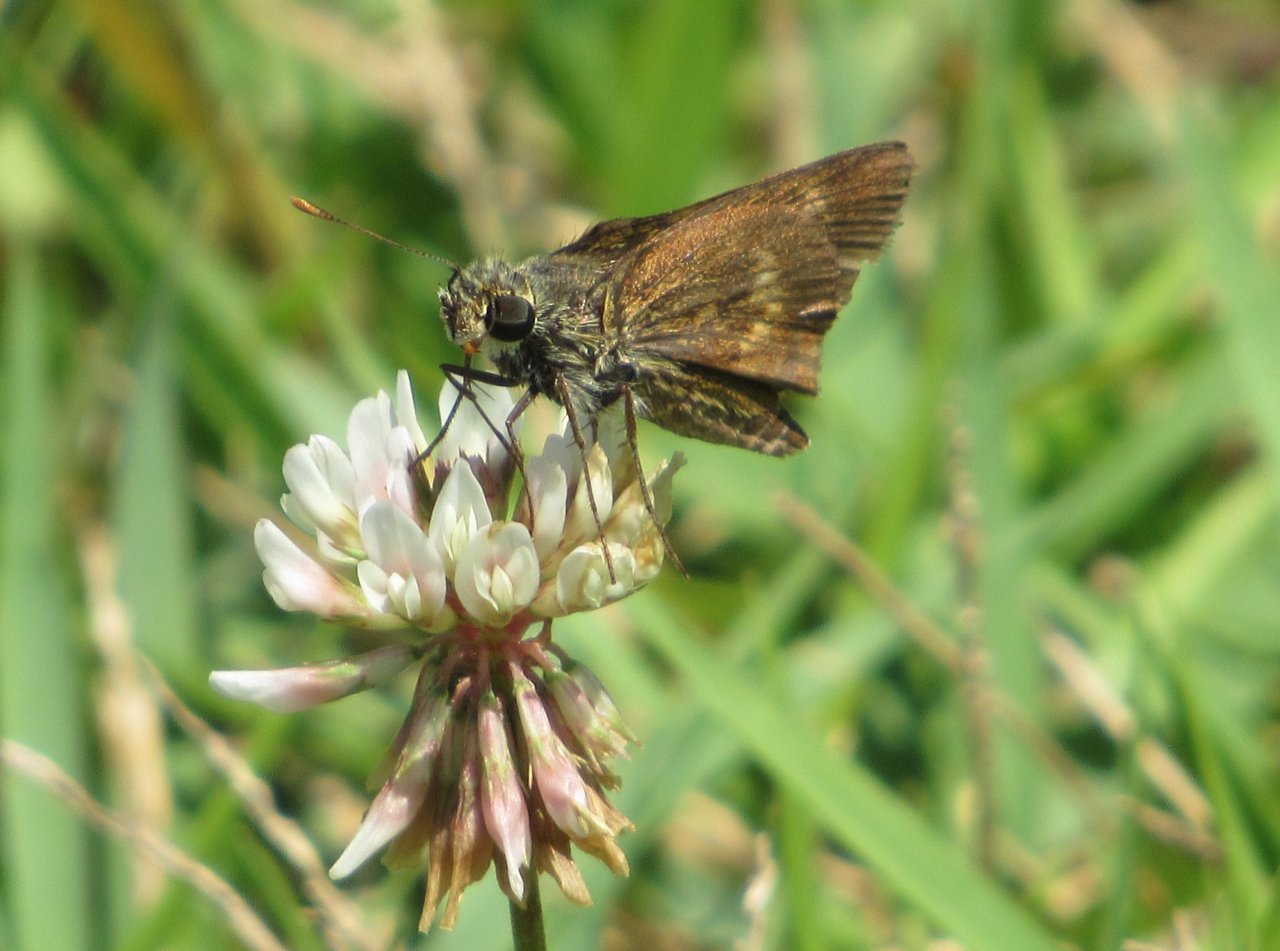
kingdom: Animalia
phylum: Arthropoda
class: Insecta
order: Lepidoptera
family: Hesperiidae
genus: Polites
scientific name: Polites egeremet
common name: Northern Broken-Dash
